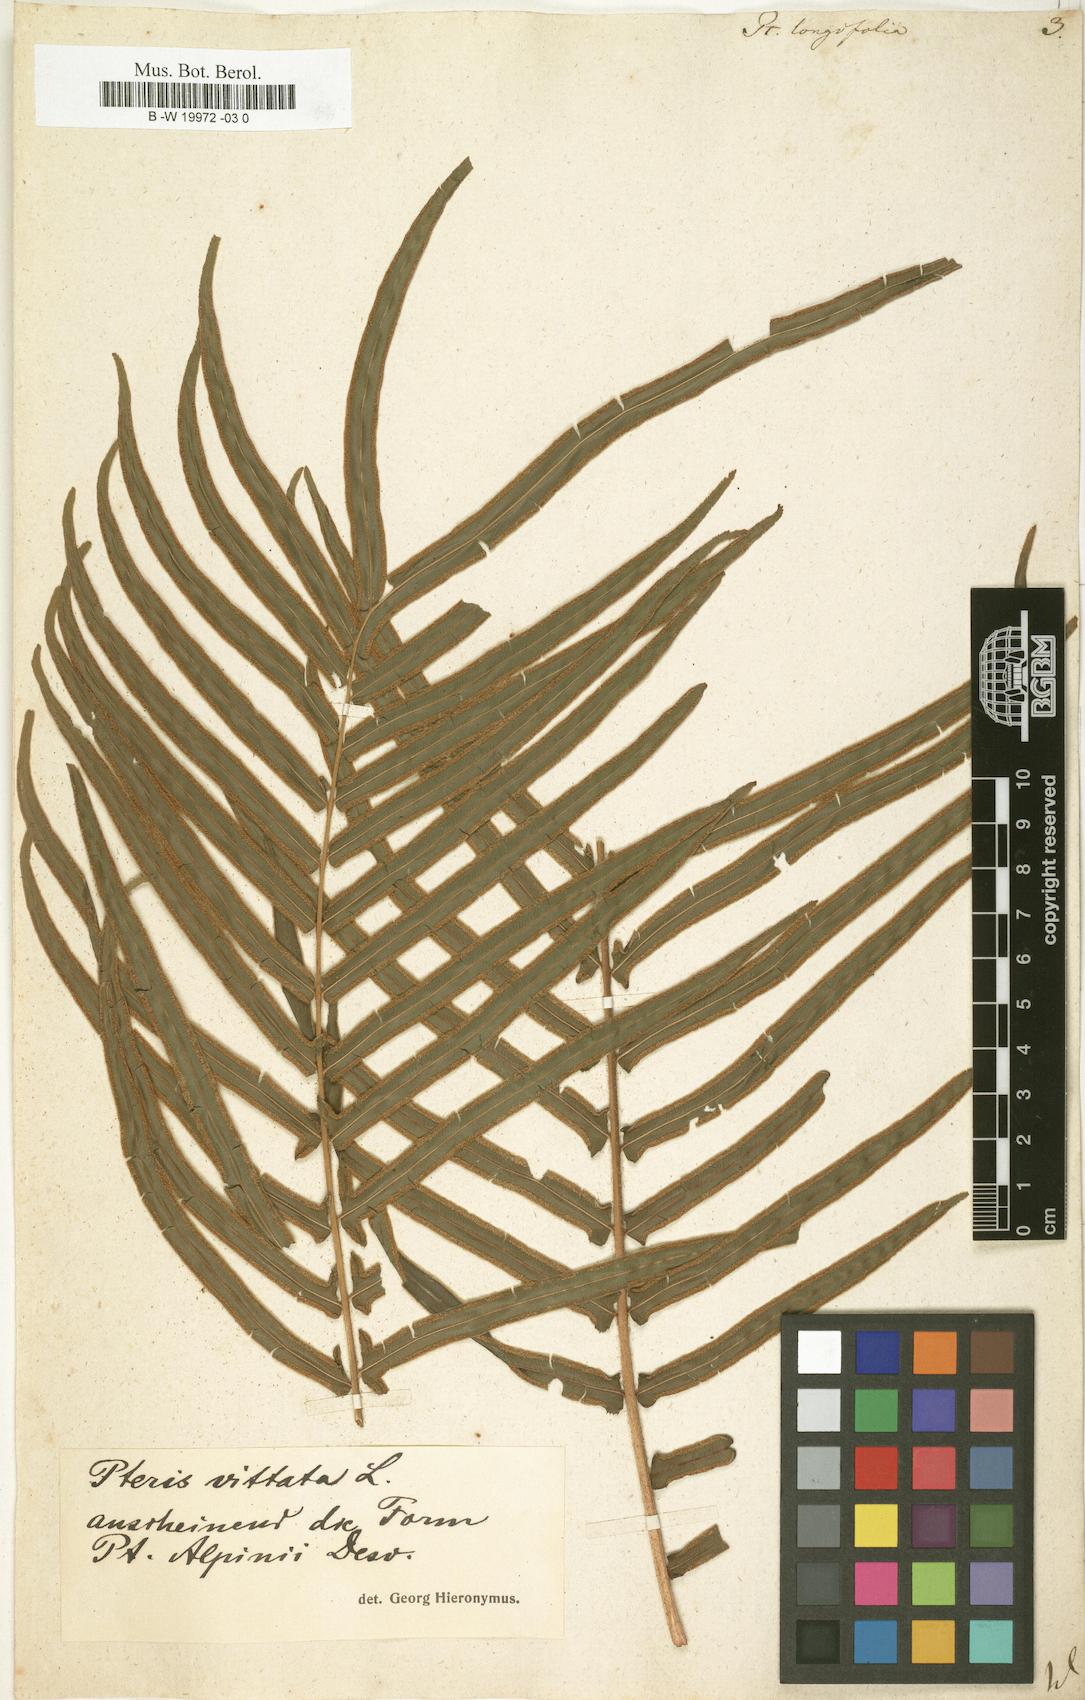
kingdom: Plantae
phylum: Tracheophyta
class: Polypodiopsida
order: Polypodiales
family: Pteridaceae
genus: Pteris
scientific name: Pteris longifolia
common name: Longleaf brake
